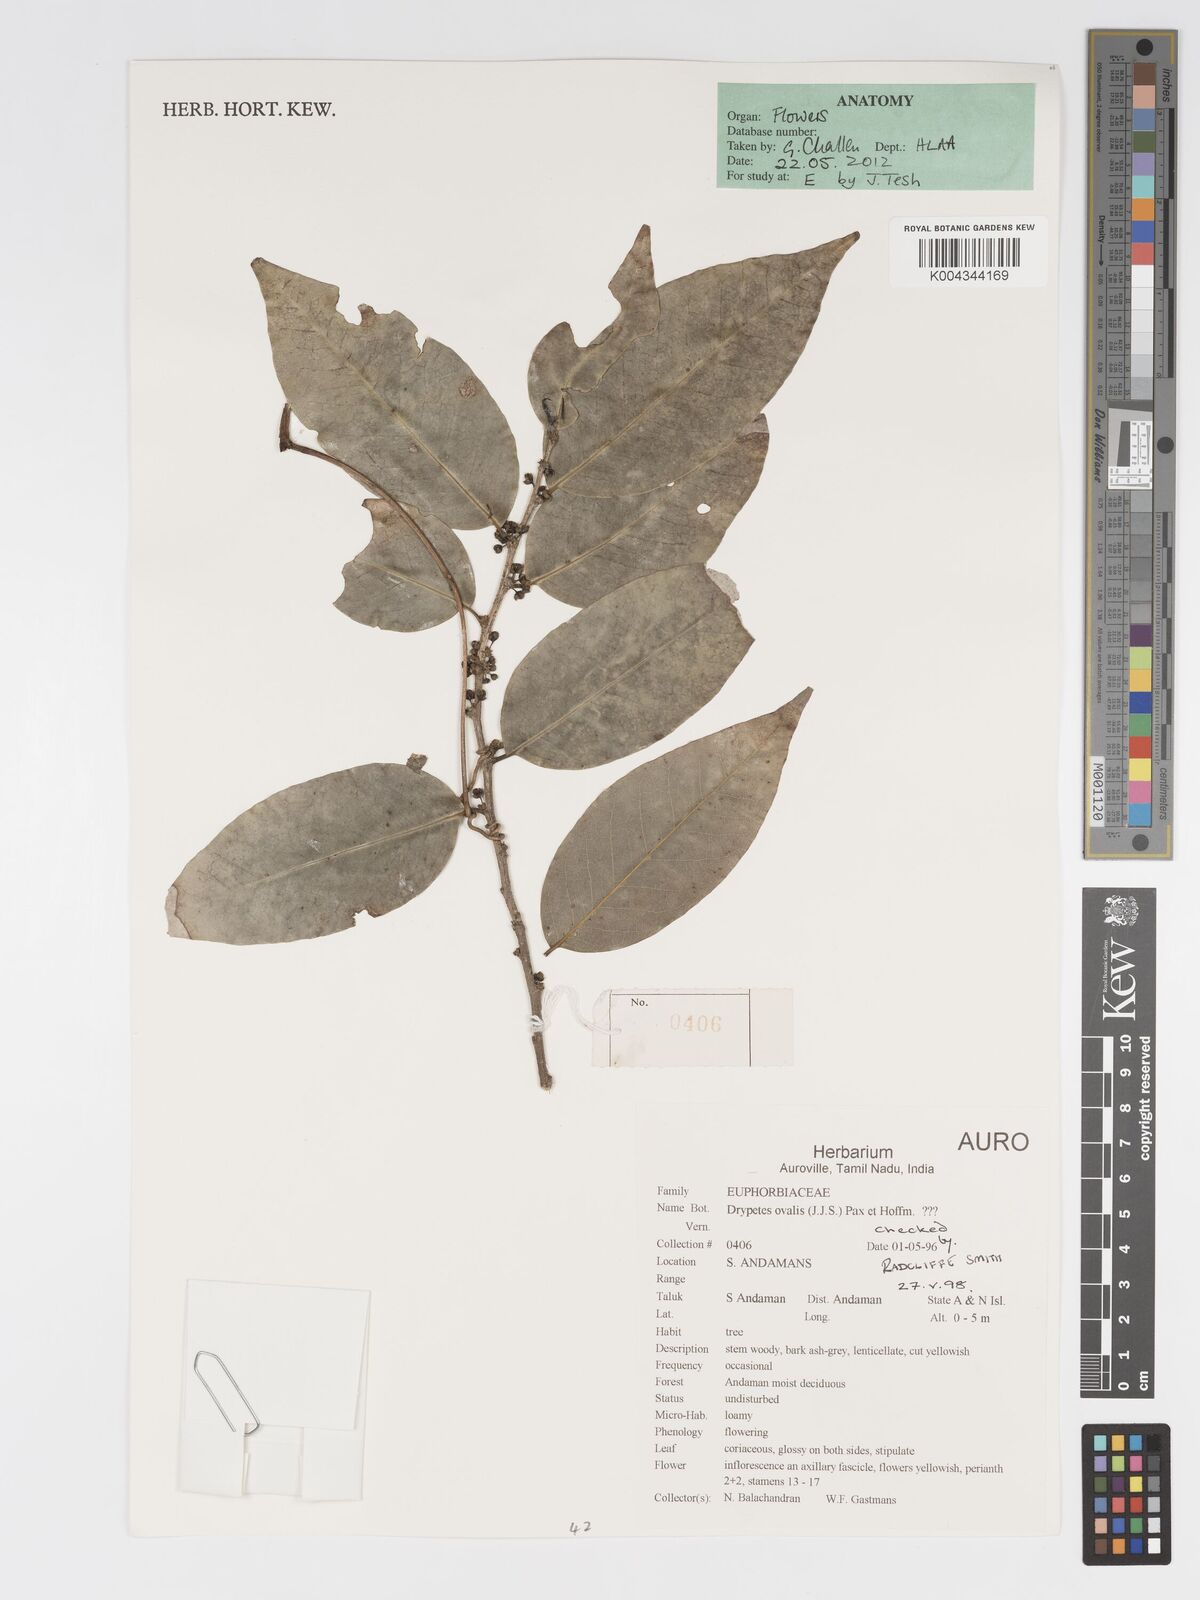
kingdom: Plantae
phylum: Tracheophyta
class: Magnoliopsida
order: Malpighiales
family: Putranjivaceae
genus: Drypetes
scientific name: Drypetes ovalis
